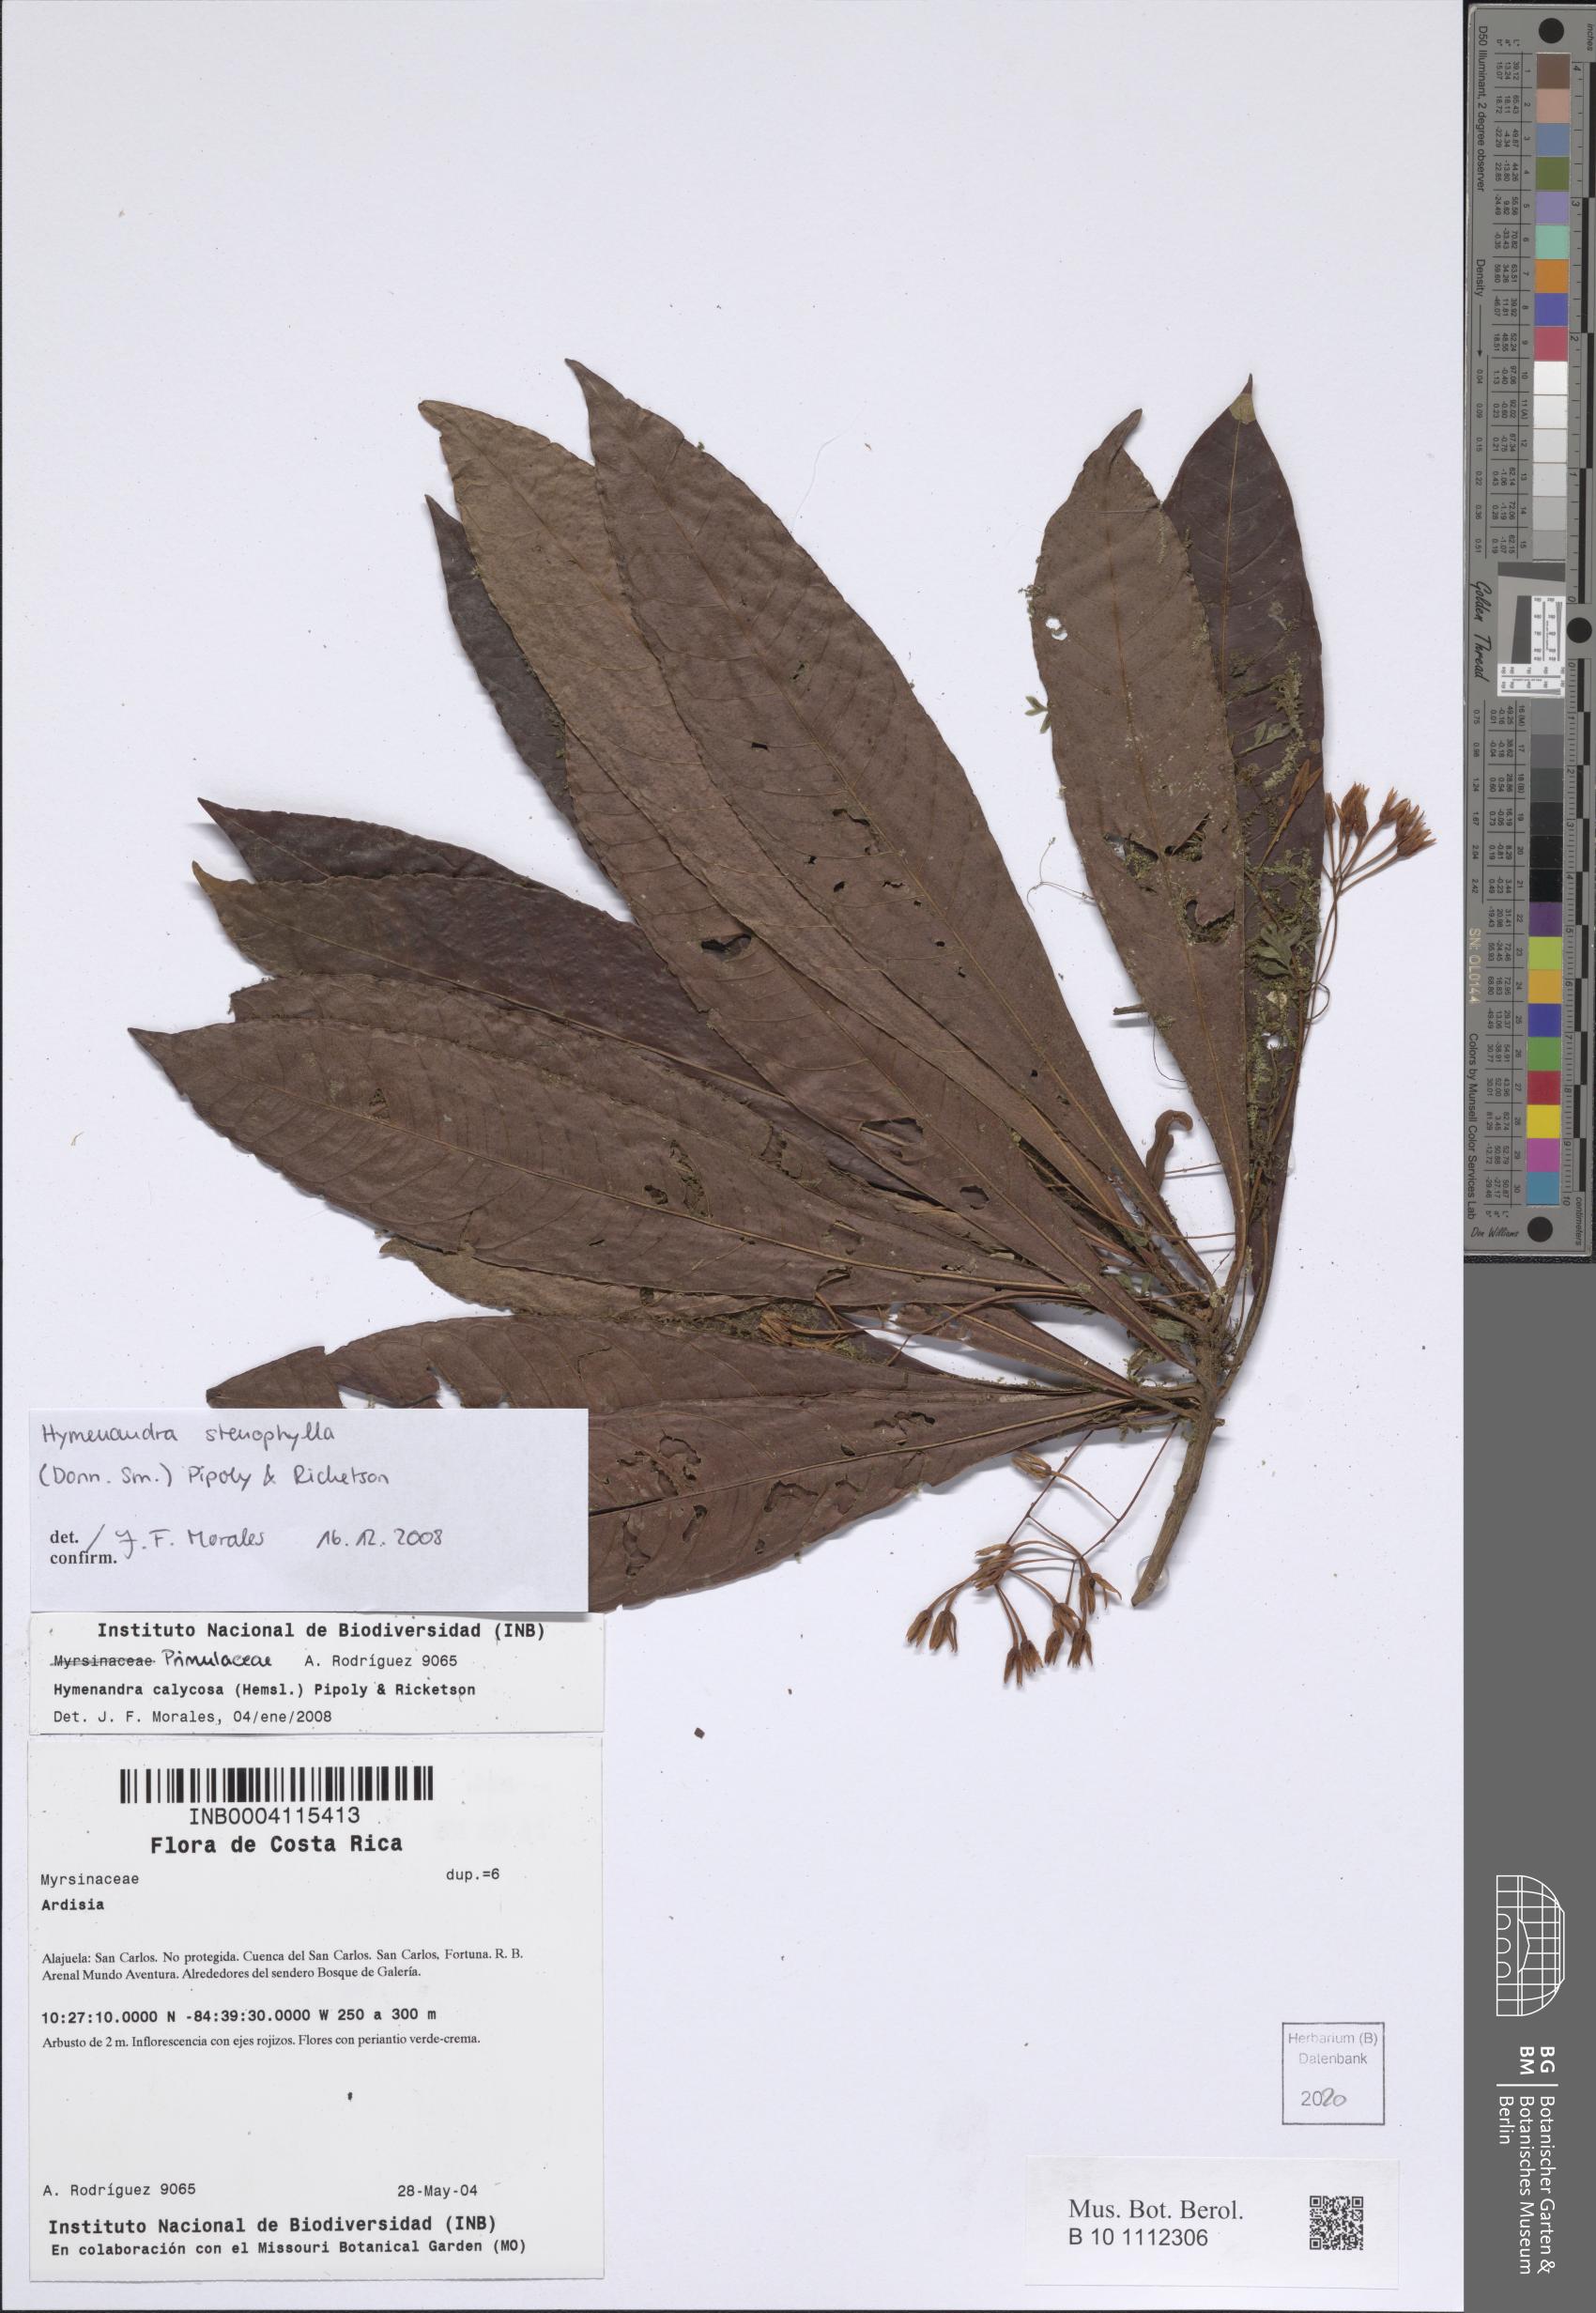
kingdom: Plantae
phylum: Tracheophyta
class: Magnoliopsida
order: Ericales
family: Primulaceae
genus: Hymenandra
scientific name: Hymenandra stenophylla
